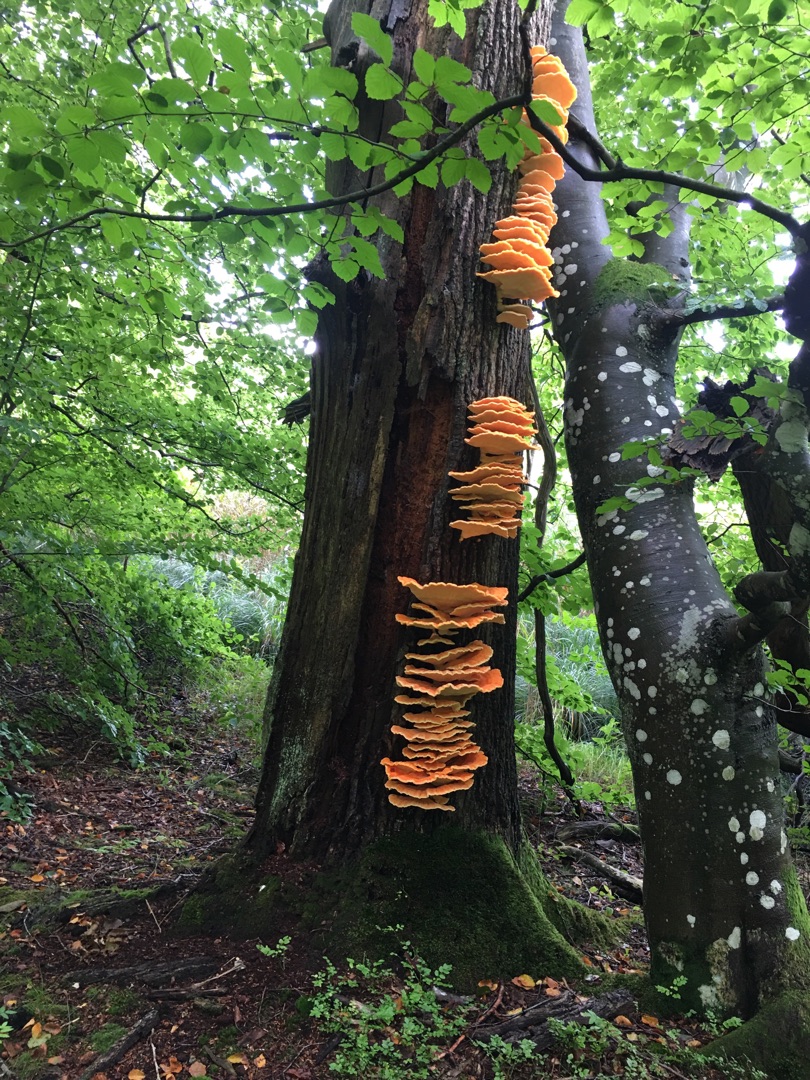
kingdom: Fungi
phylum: Basidiomycota
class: Agaricomycetes
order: Polyporales
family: Laetiporaceae
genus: Laetiporus
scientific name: Laetiporus sulphureus
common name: Svovlporesvamp
